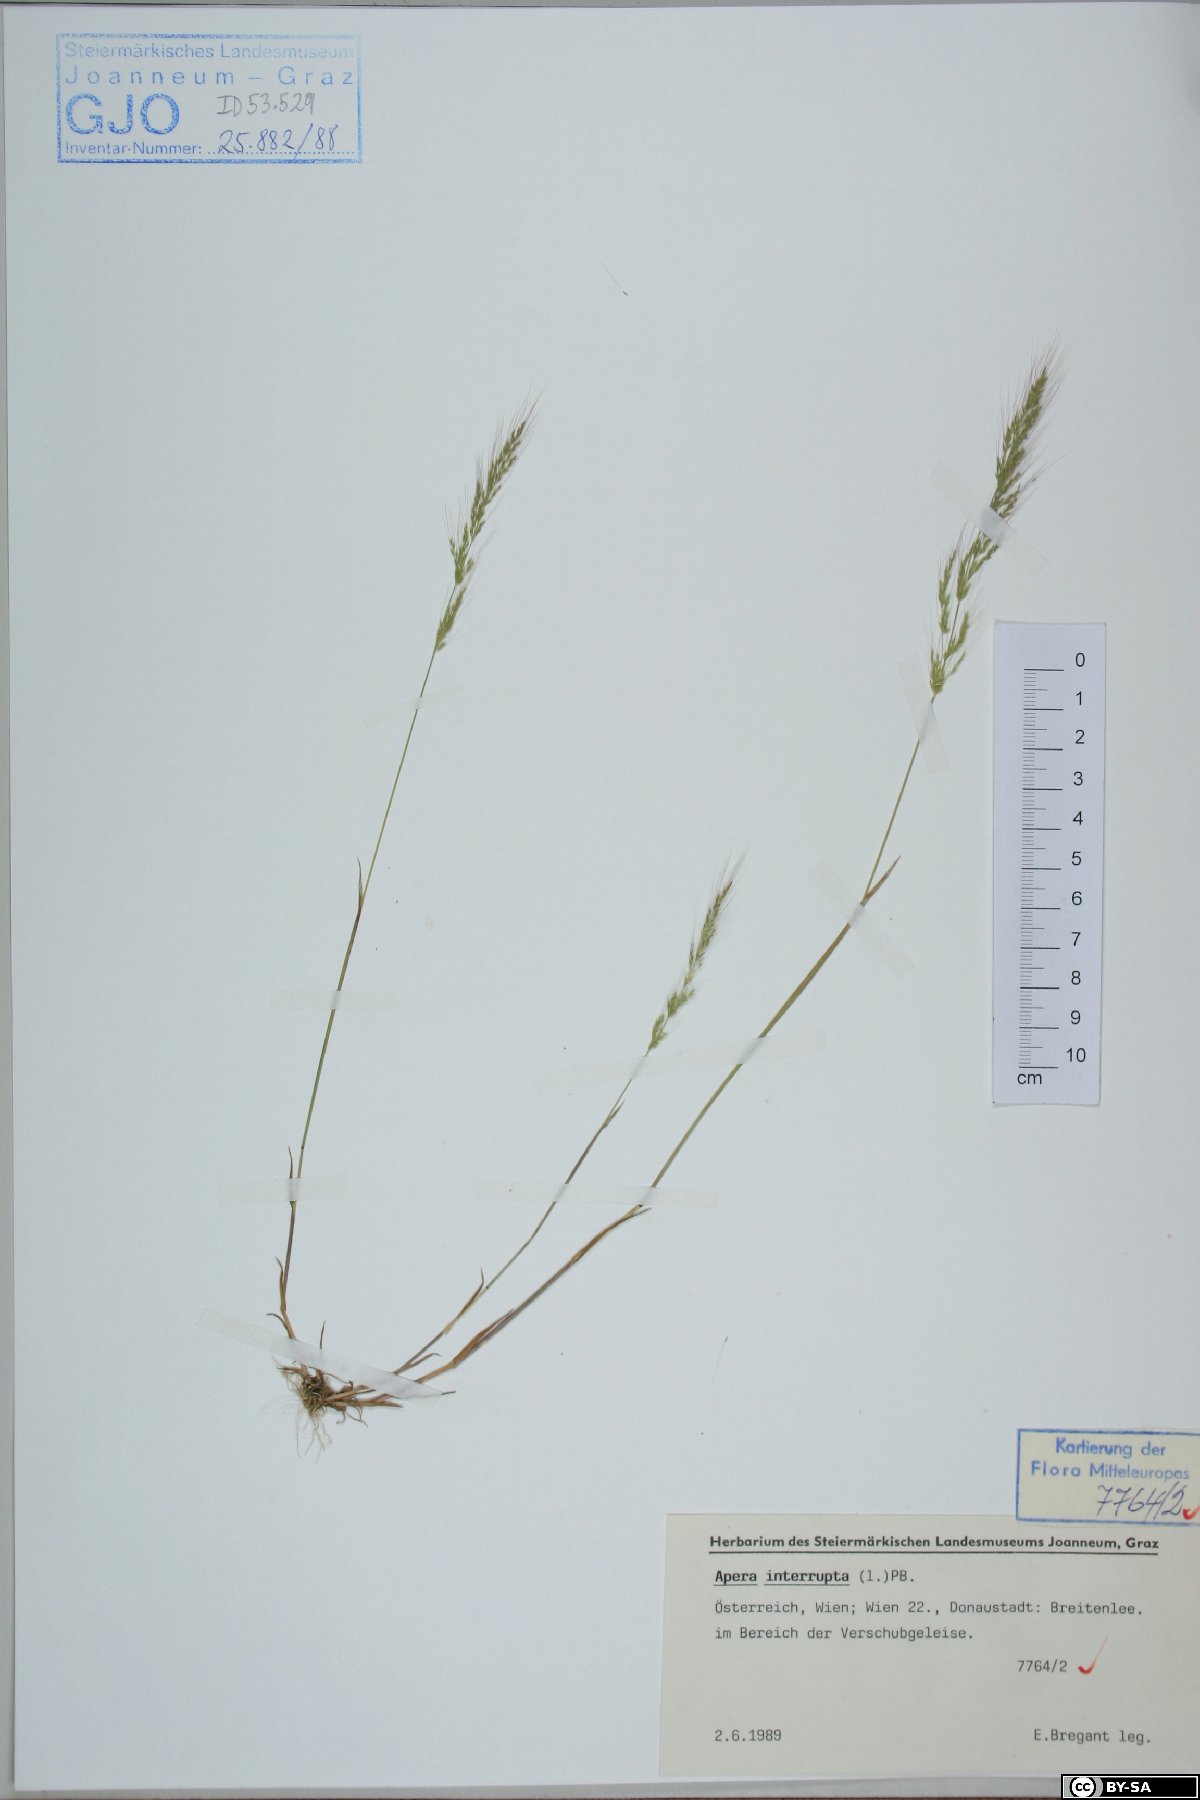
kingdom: Plantae
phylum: Tracheophyta
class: Liliopsida
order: Poales
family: Poaceae
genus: Apera
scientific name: Apera interrupta
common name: Dense silky-bent
